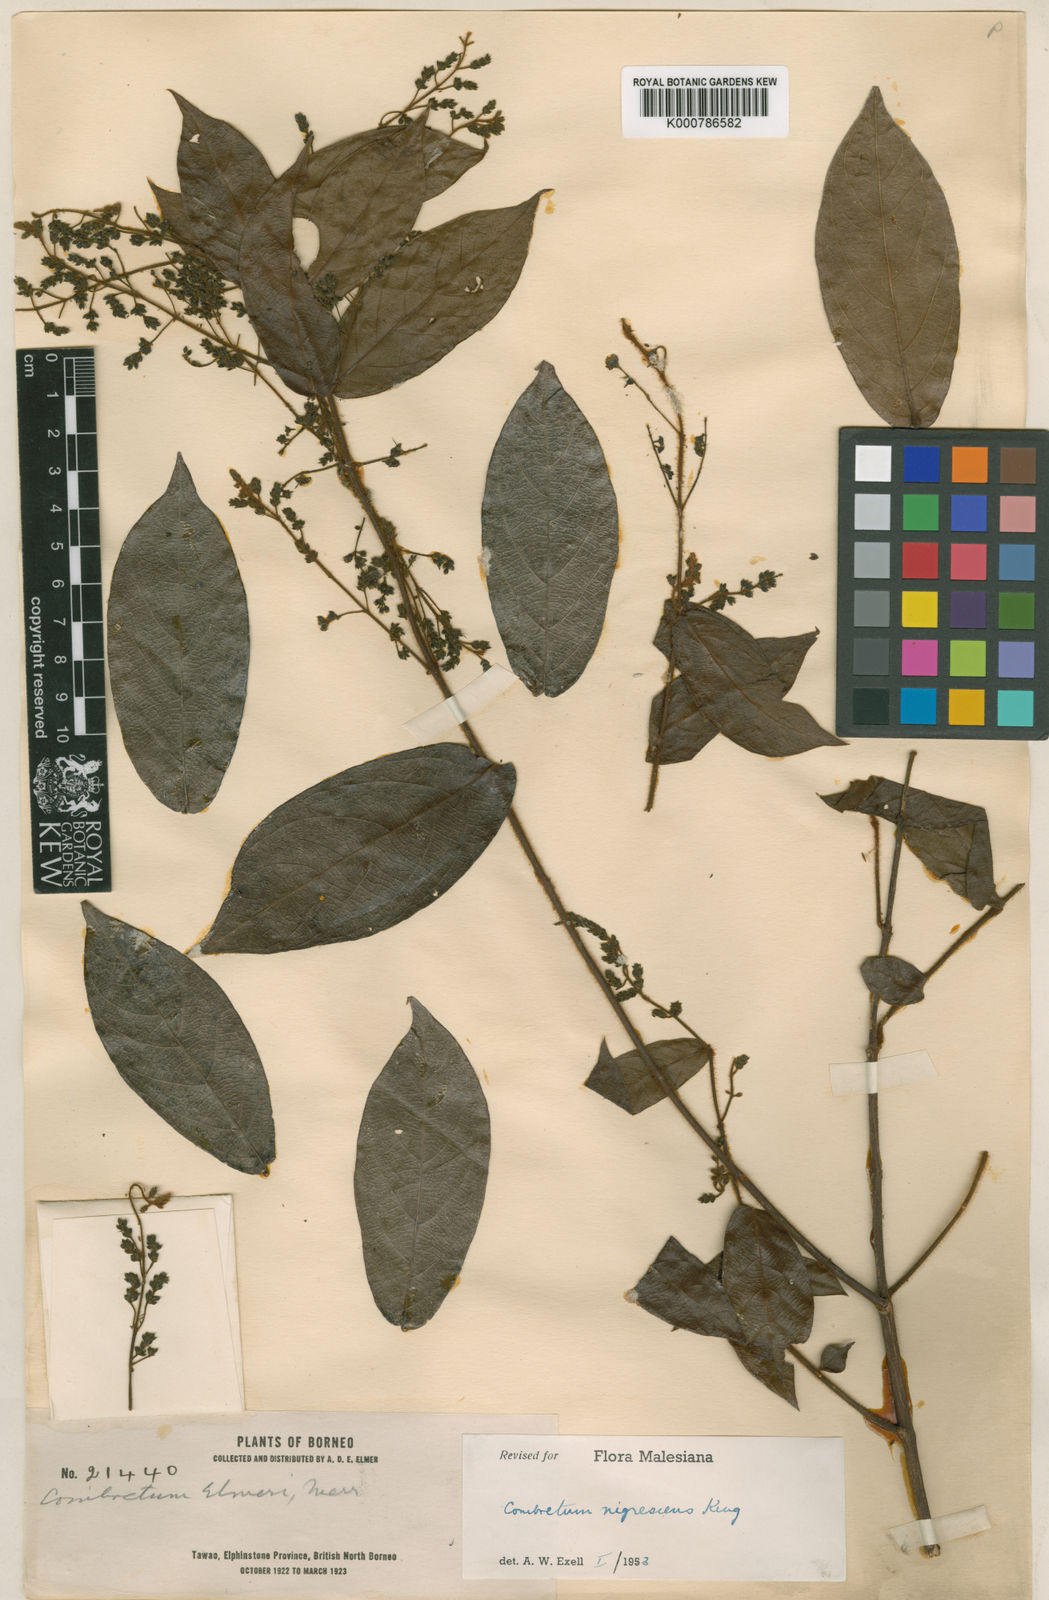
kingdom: Plantae
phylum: Tracheophyta
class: Magnoliopsida
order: Myrtales
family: Combretaceae
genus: Combretum
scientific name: Combretum nigrescens
